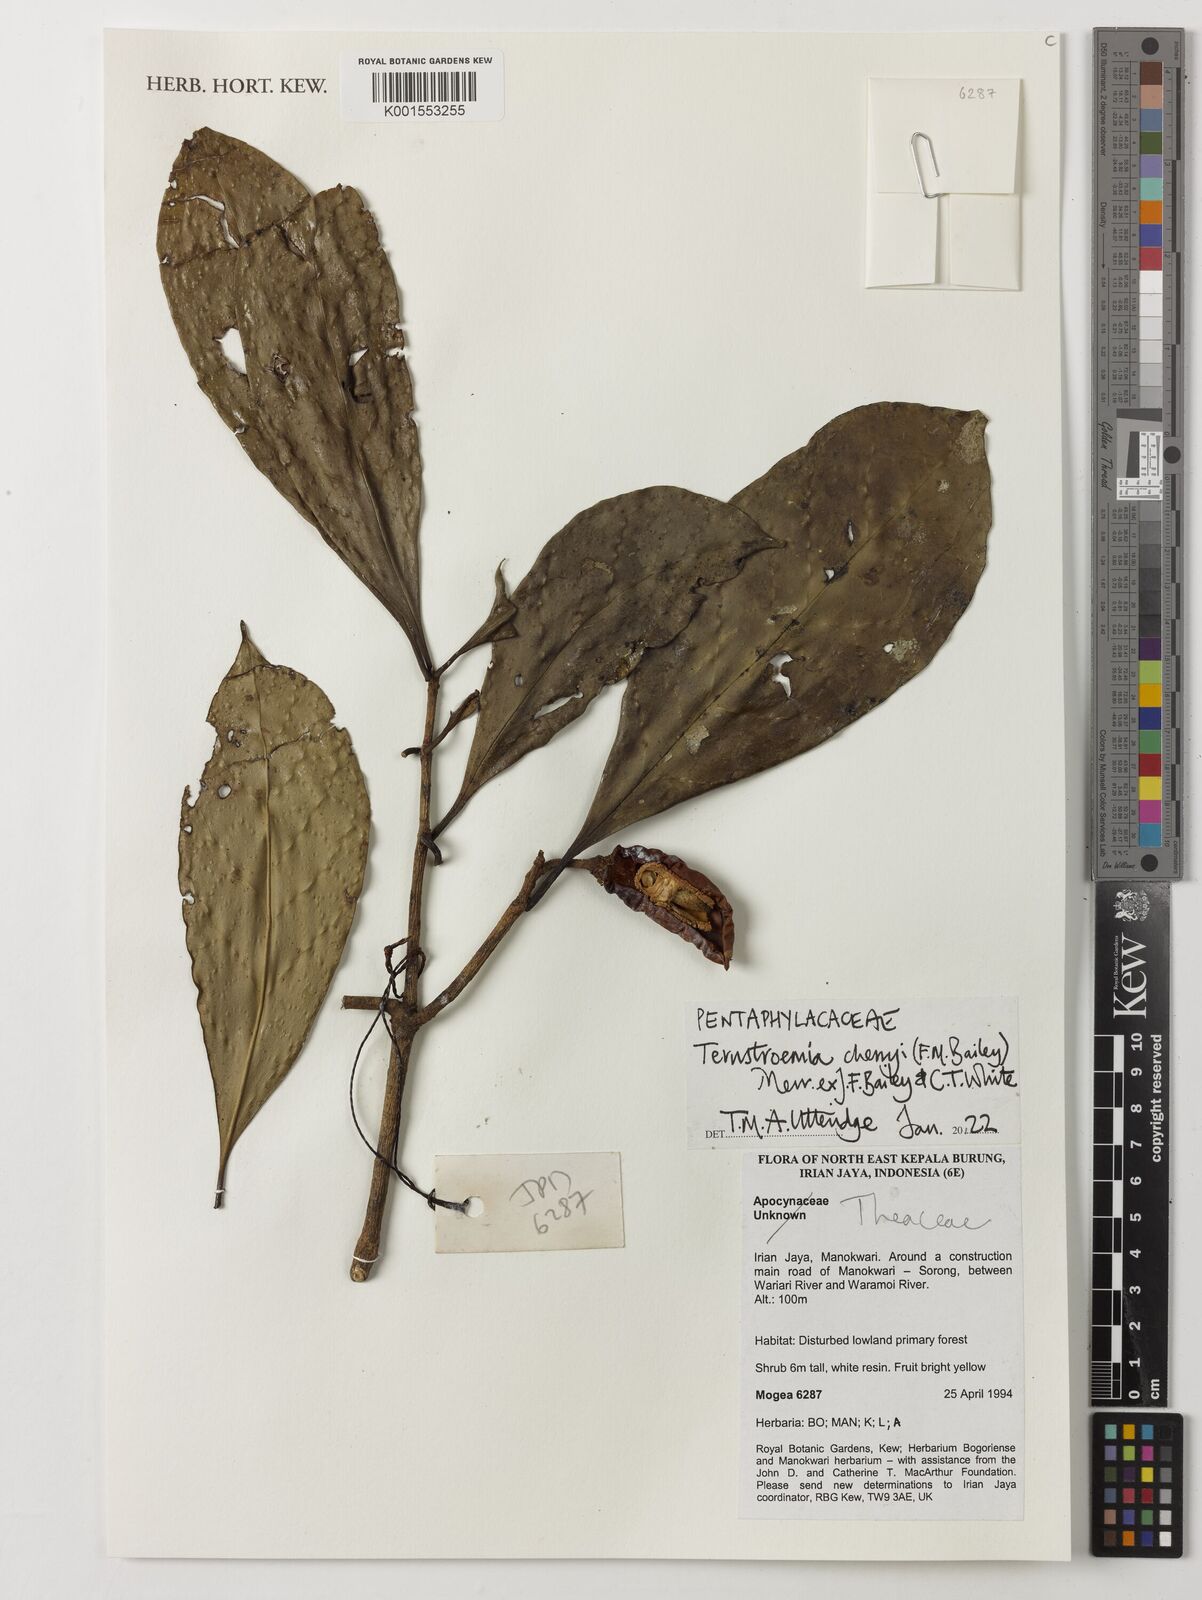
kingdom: Plantae
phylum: Tracheophyta
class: Magnoliopsida
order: Ericales
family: Pentaphylacaceae
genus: Ternstroemia
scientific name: Ternstroemia cherryi
